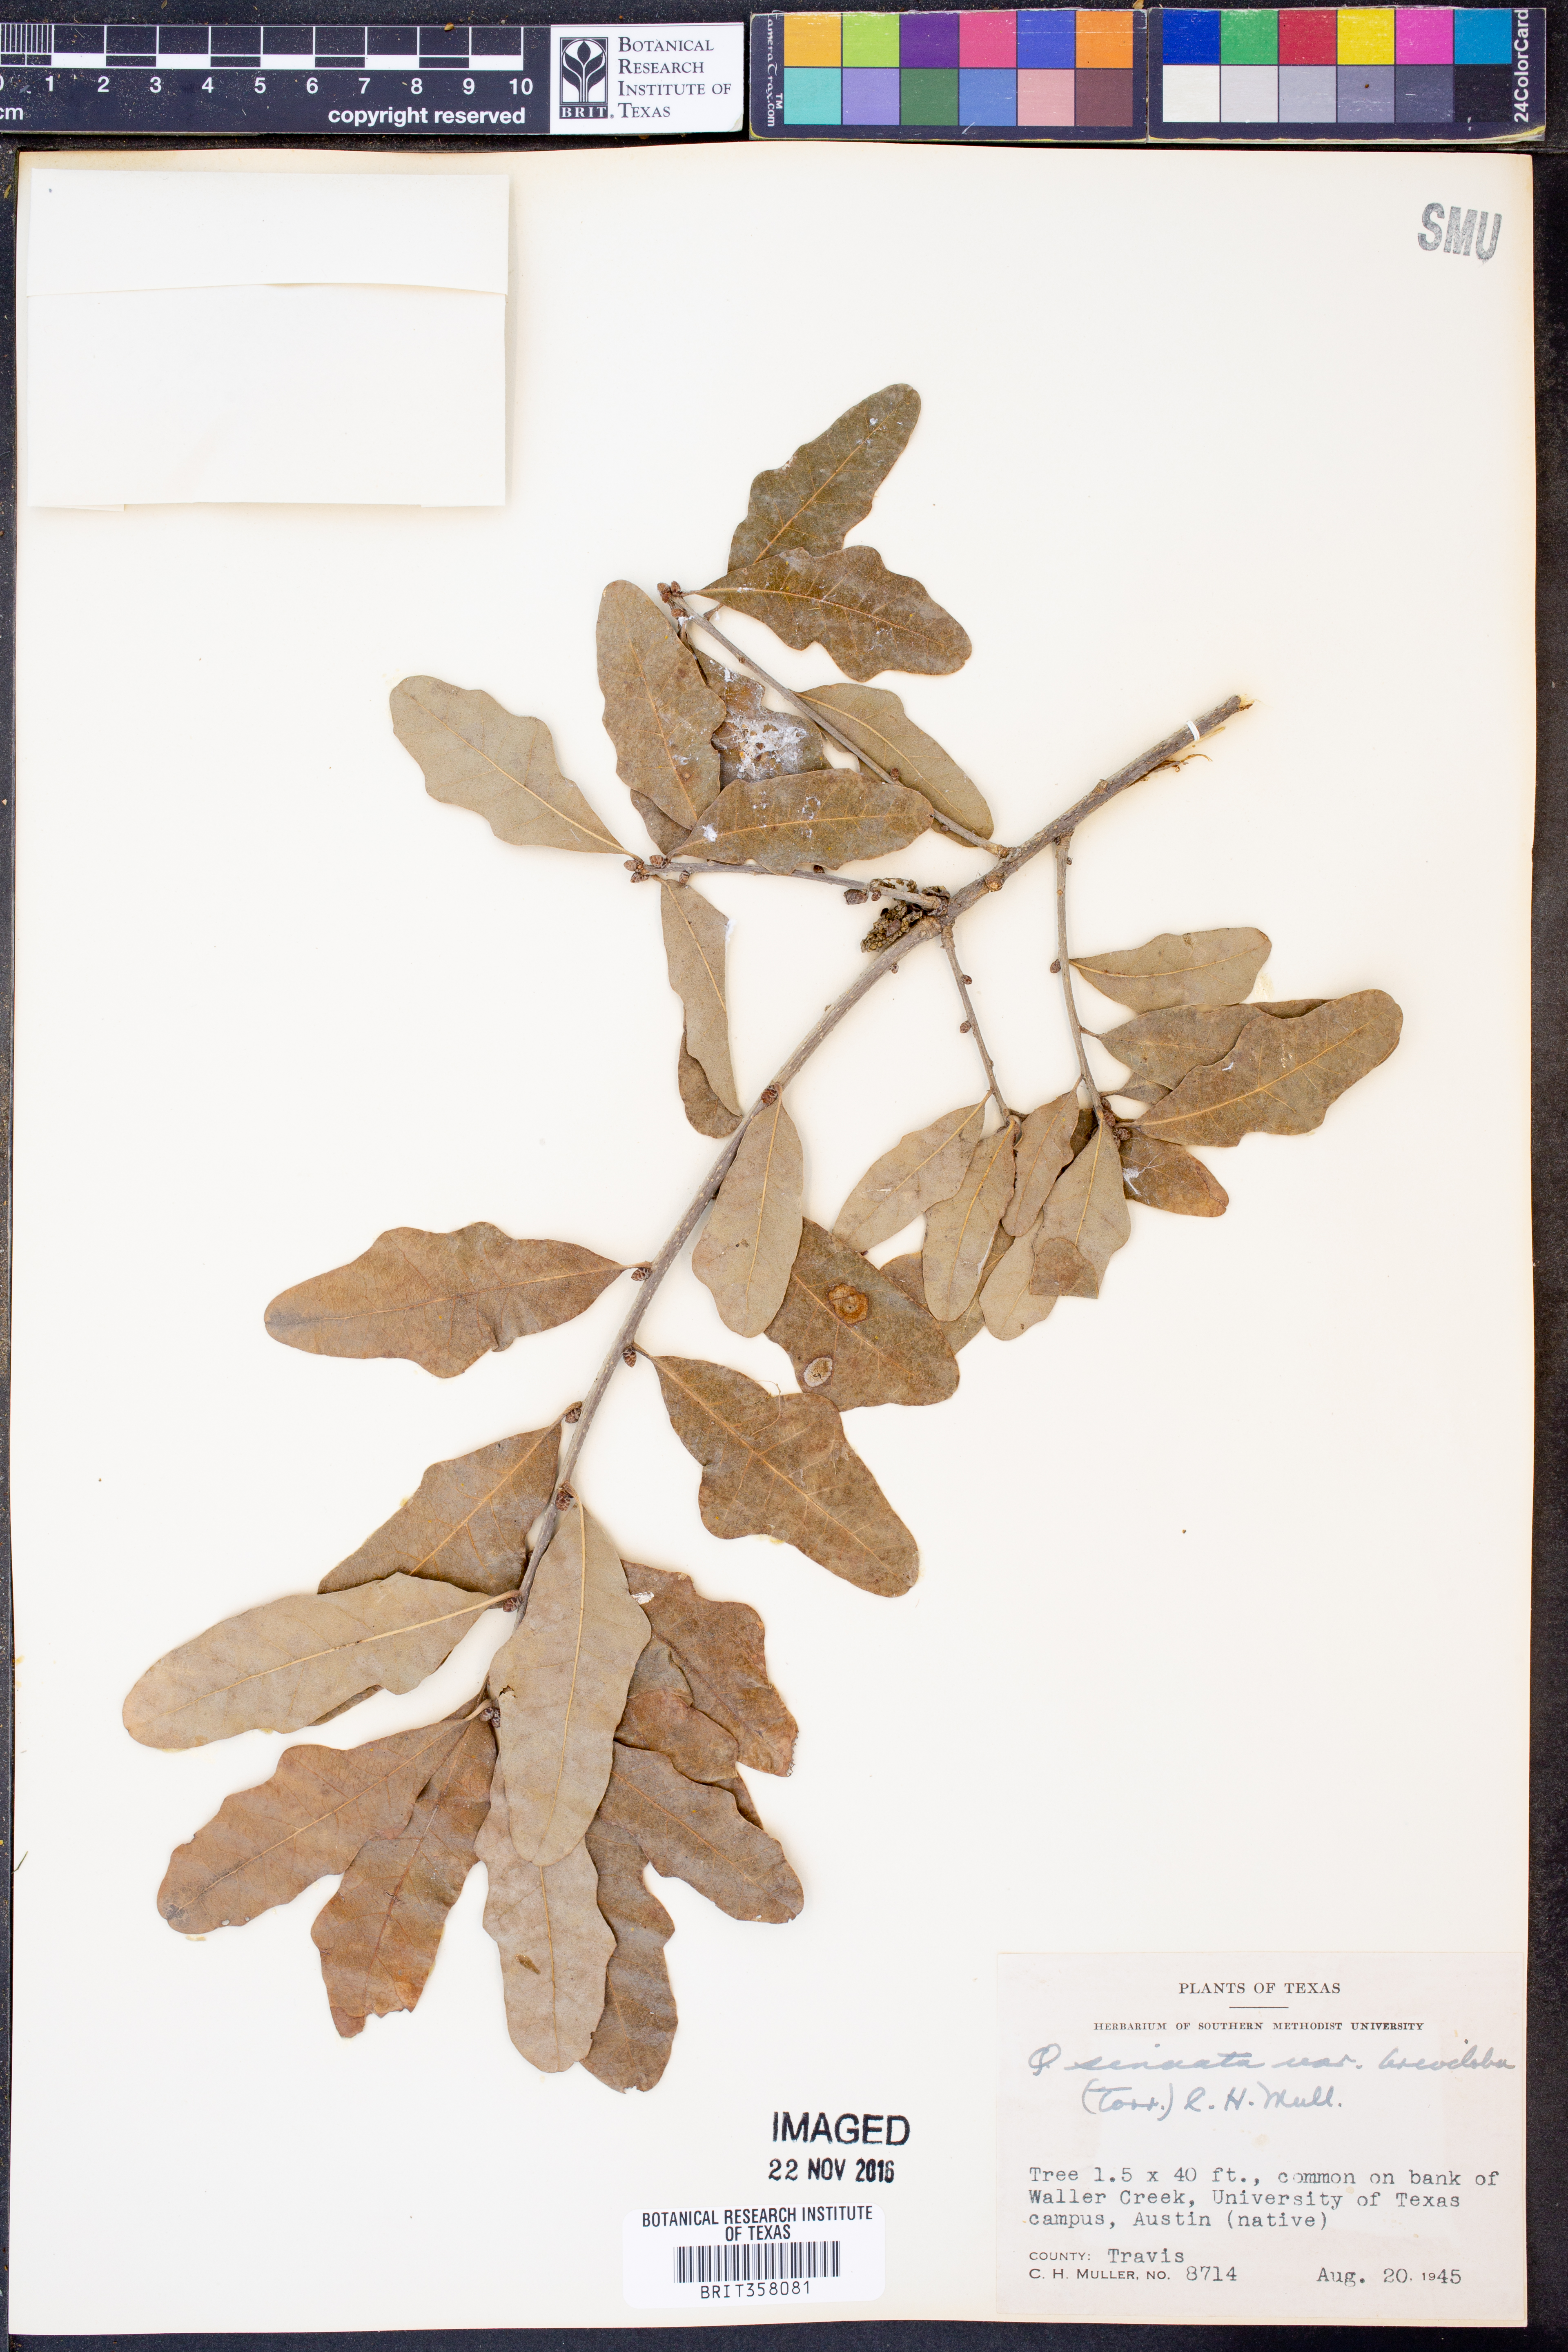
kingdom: Plantae
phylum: Tracheophyta
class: Magnoliopsida
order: Fagales
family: Fagaceae
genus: Quercus
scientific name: Quercus sinuata
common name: Durand oak
